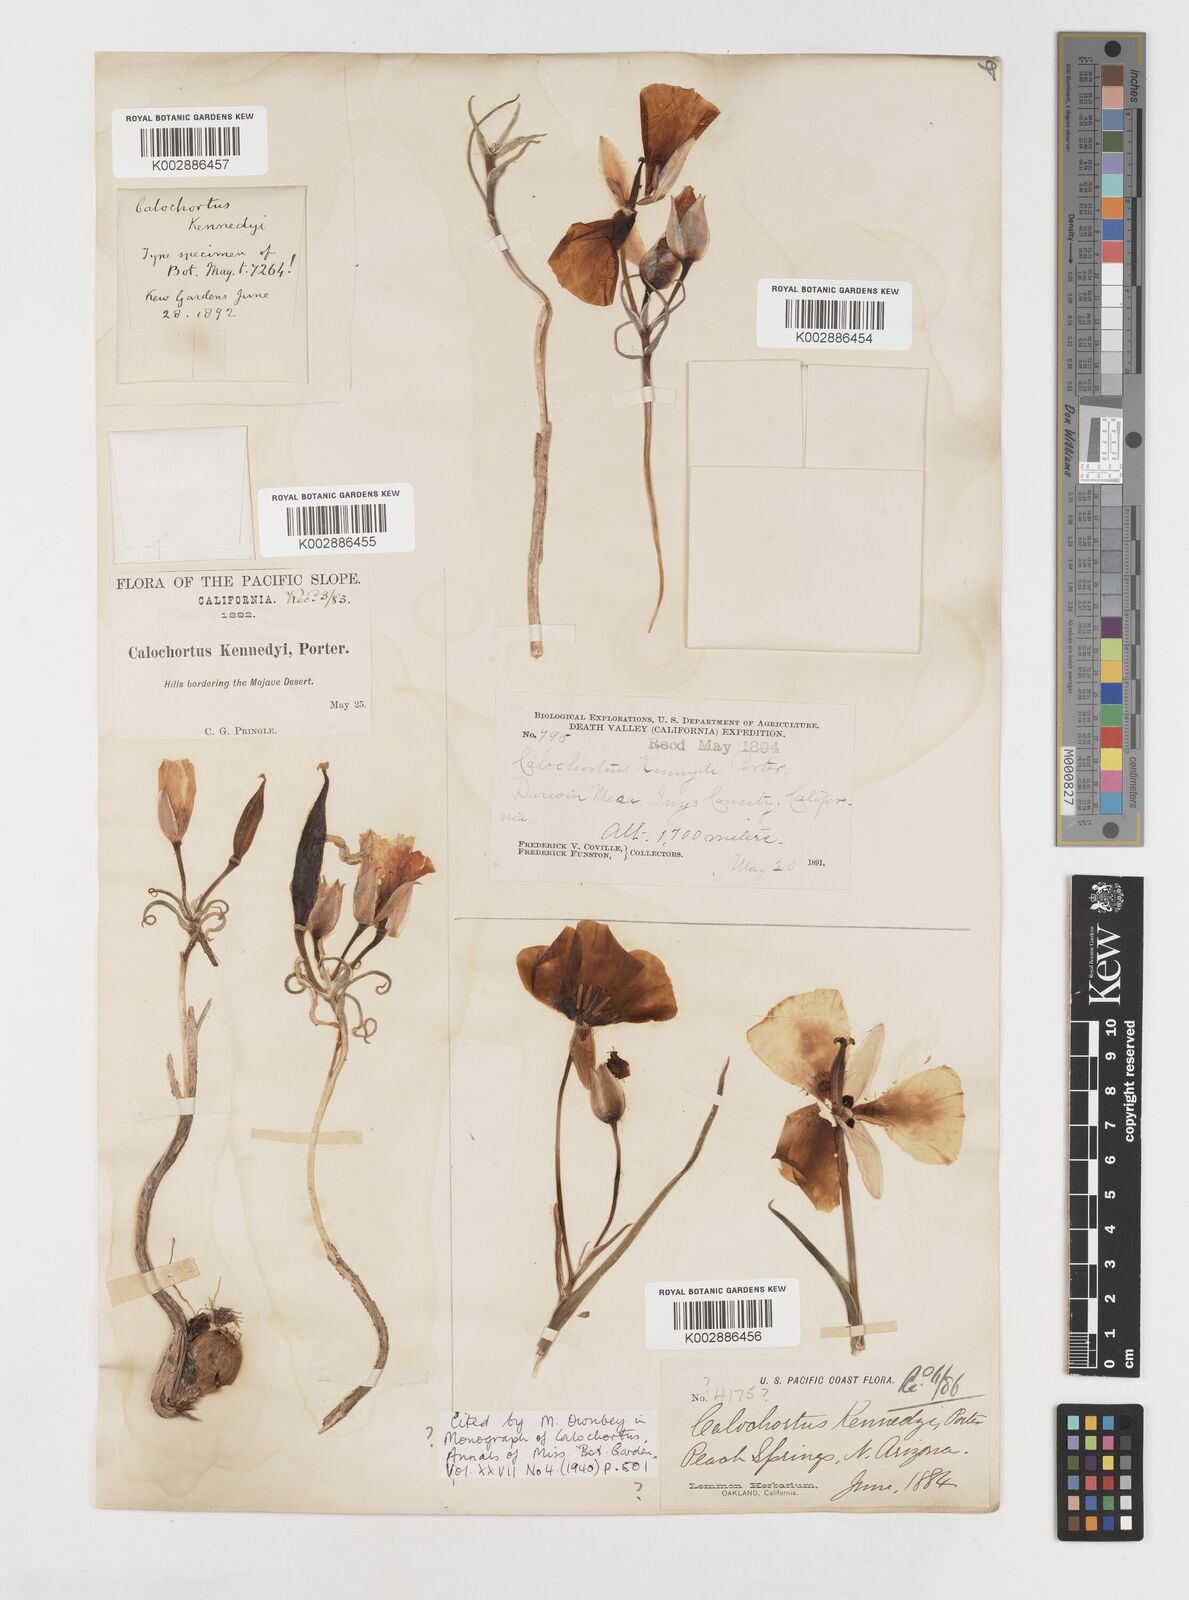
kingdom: Plantae
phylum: Tracheophyta
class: Liliopsida
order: Liliales
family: Liliaceae
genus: Calochortus
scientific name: Calochortus kennedyi
